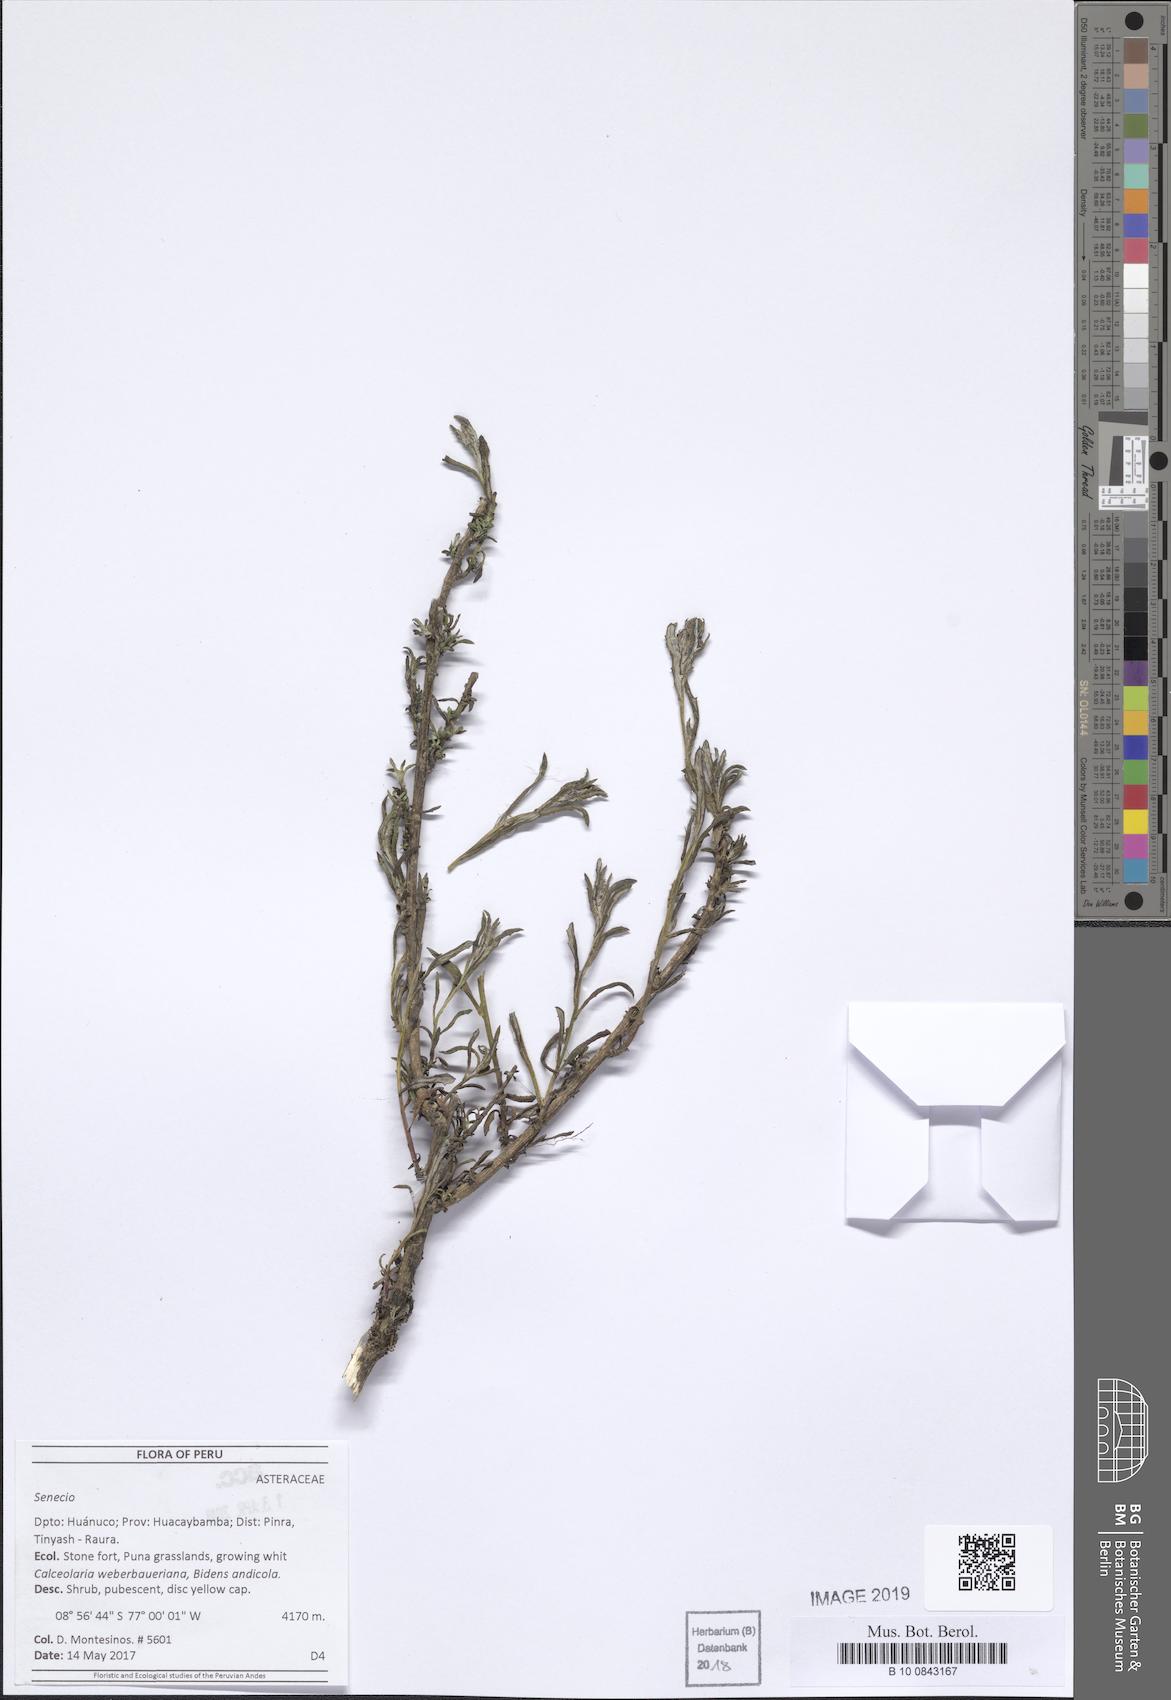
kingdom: Plantae
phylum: Tracheophyta
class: Magnoliopsida
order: Asterales
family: Asteraceae
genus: Senecio
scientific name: Senecio chiquianensis
